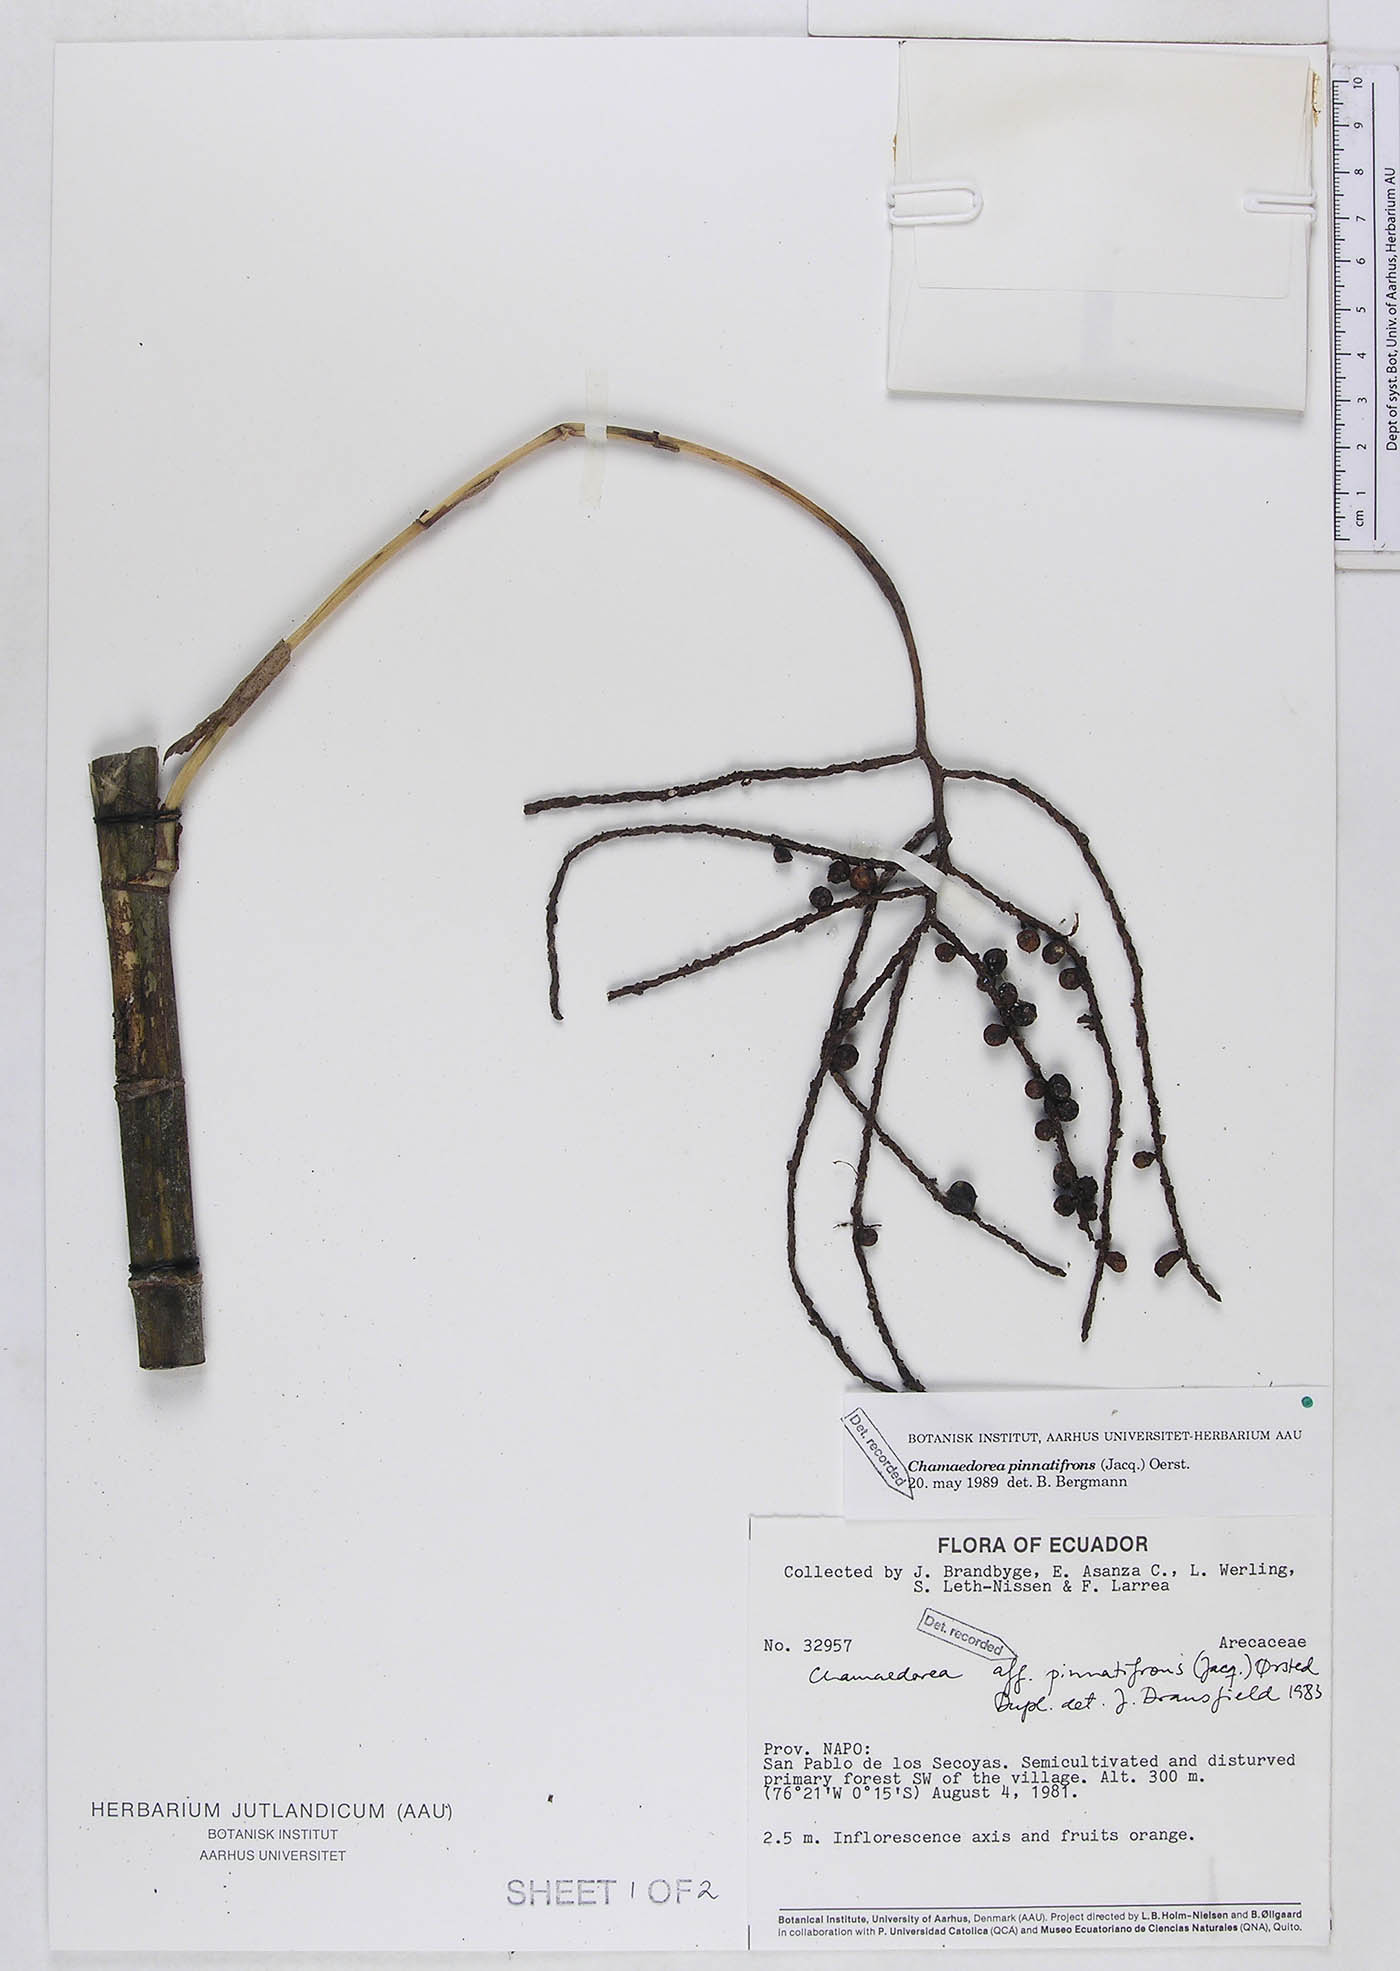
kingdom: Plantae
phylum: Tracheophyta
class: Liliopsida
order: Arecales
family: Arecaceae
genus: Chamaedorea
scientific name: Chamaedorea pinnatifrons
